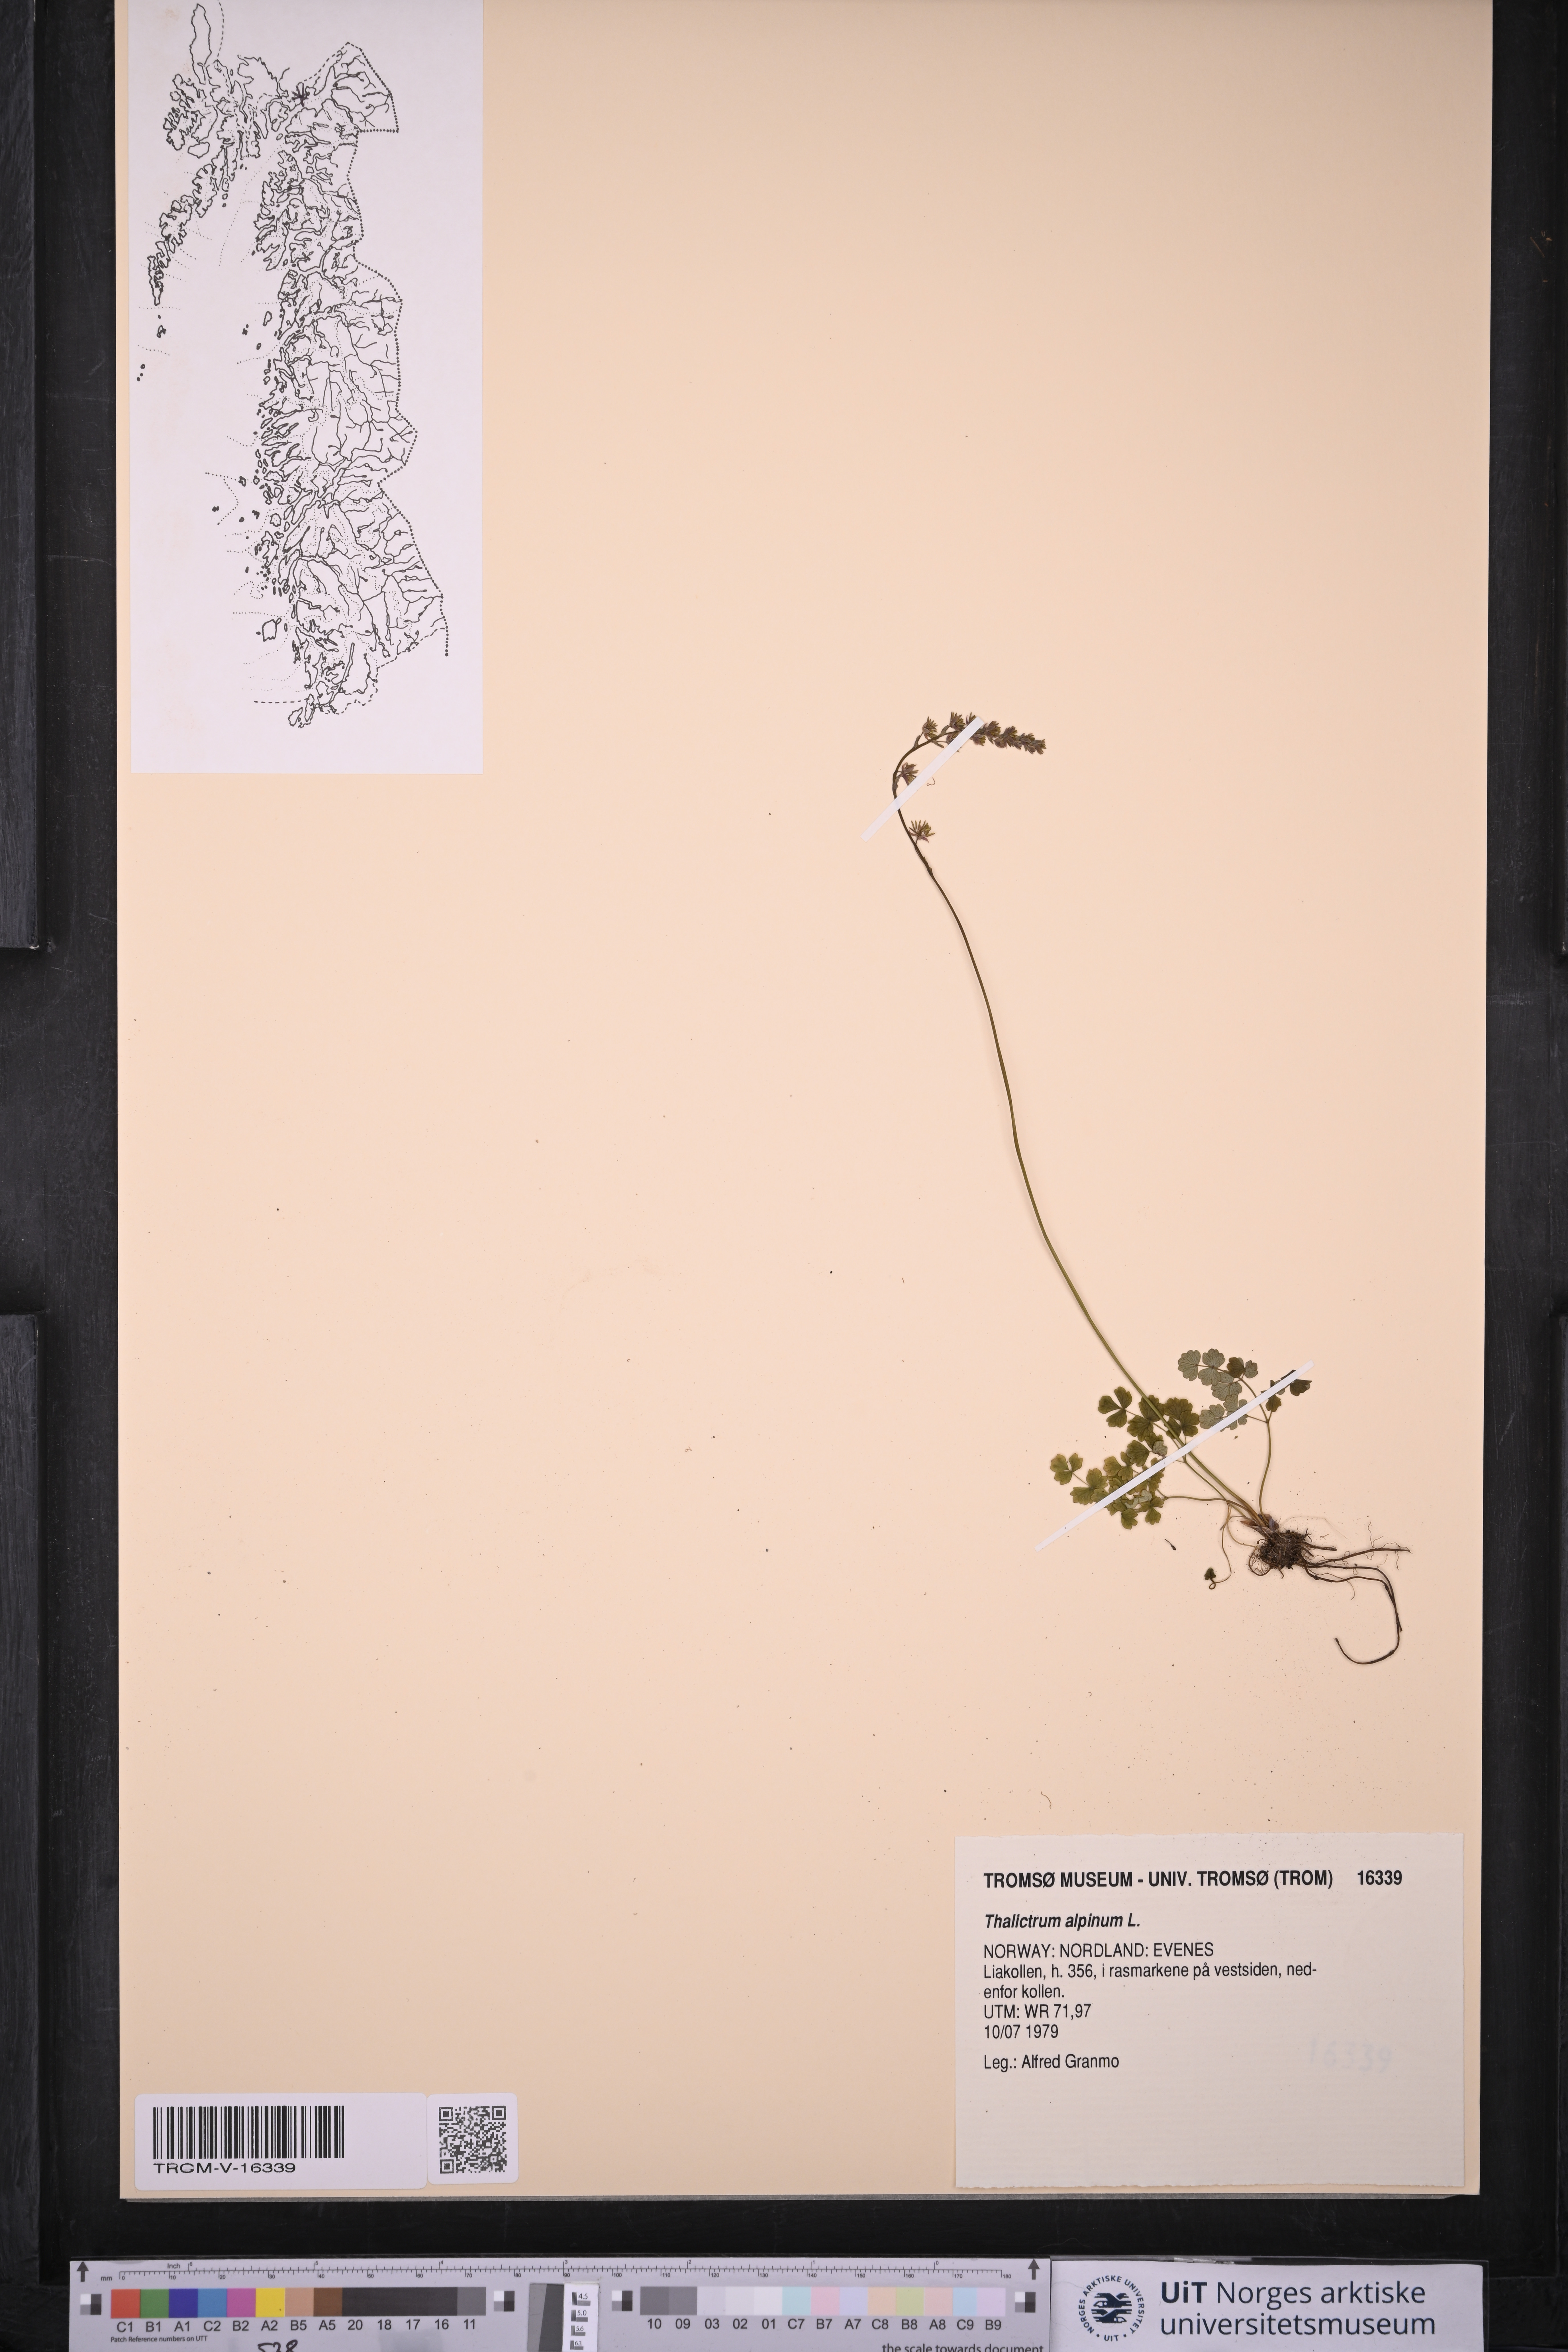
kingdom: Plantae
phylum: Tracheophyta
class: Magnoliopsida
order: Ranunculales
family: Ranunculaceae
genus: Thalictrum
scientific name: Thalictrum alpinum
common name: Alpine meadow-rue
